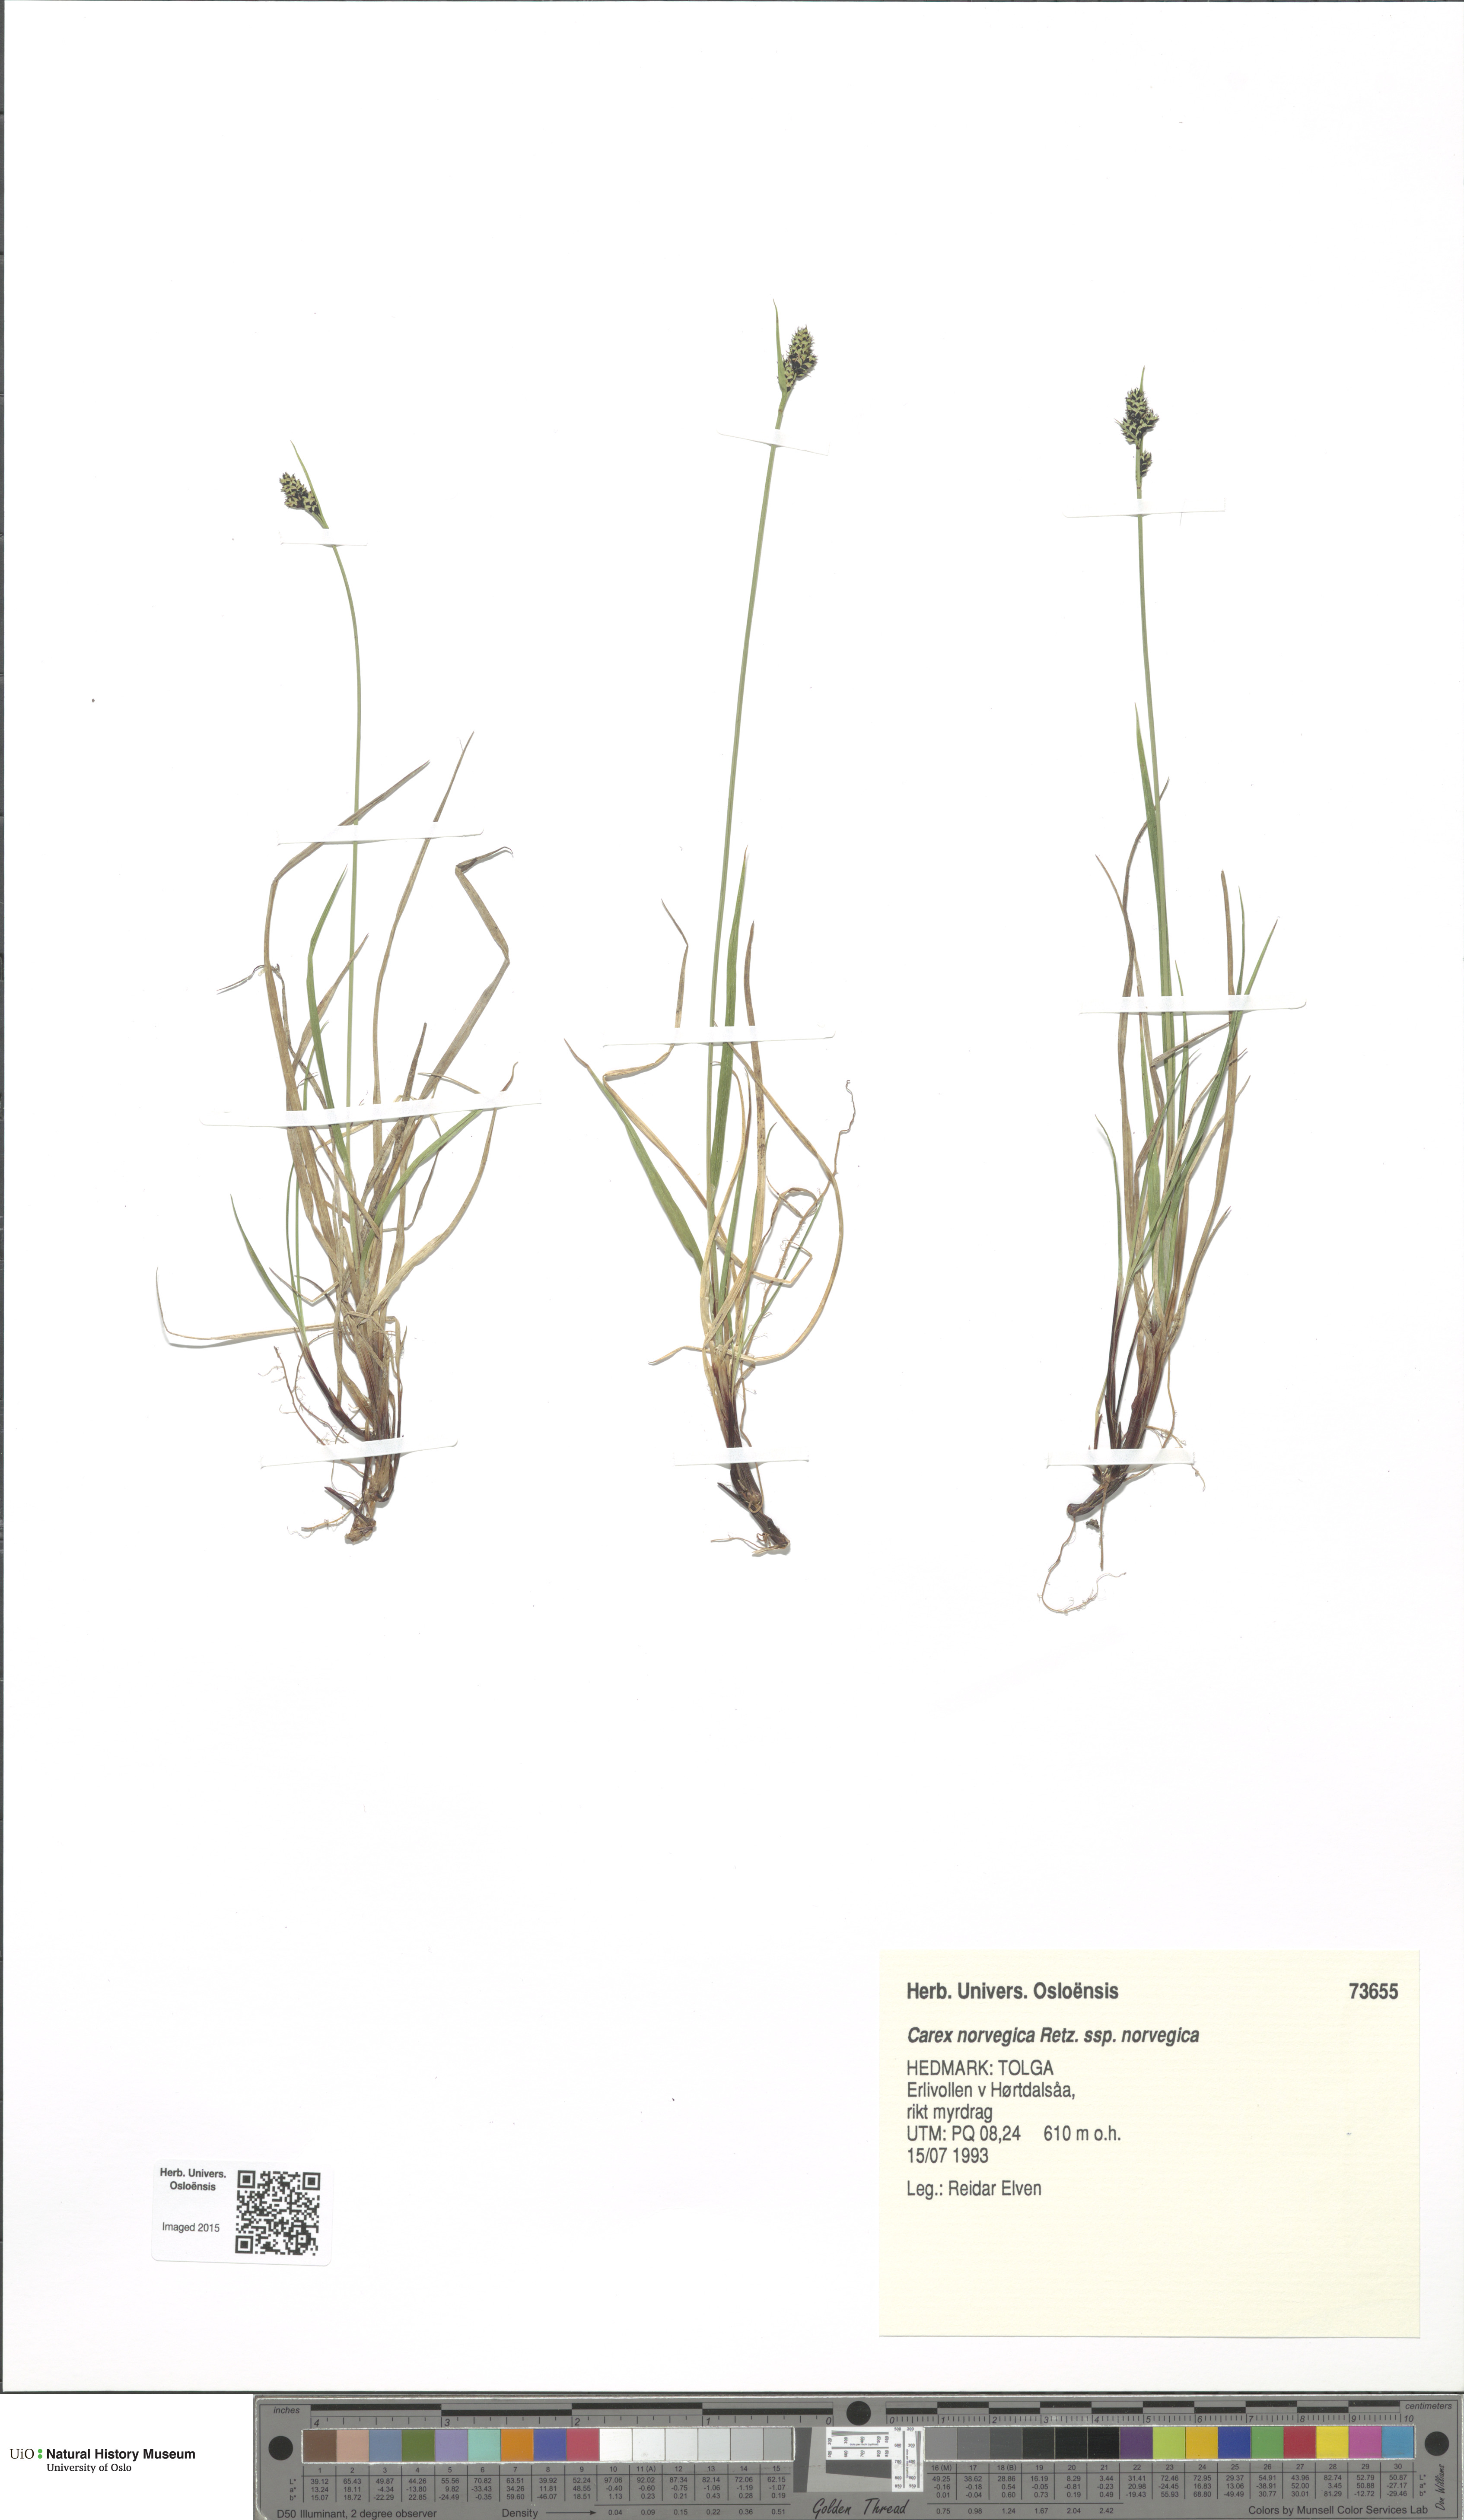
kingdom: Plantae
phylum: Tracheophyta
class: Liliopsida
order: Poales
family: Cyperaceae
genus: Carex
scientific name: Carex norvegica
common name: Close-headed alpine-sedge
